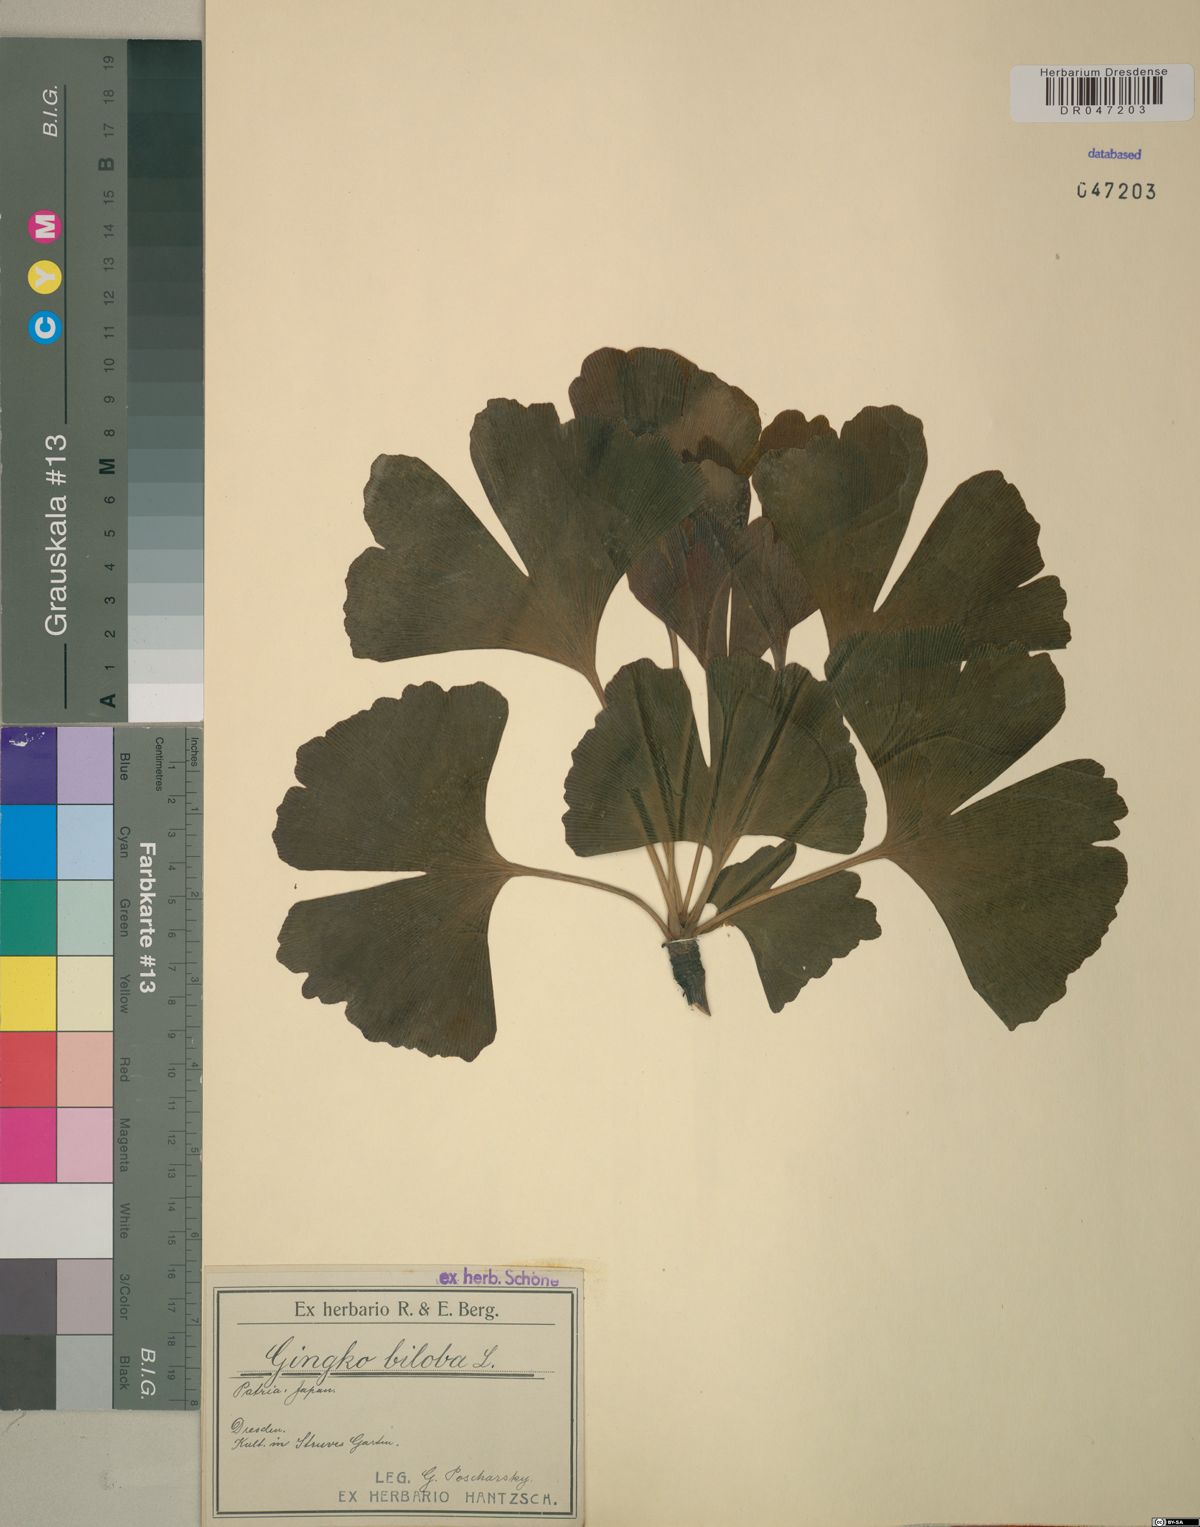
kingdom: Plantae
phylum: Tracheophyta
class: Ginkgoopsida
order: Ginkgoales
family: Ginkgoaceae
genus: Ginkgo
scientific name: Ginkgo biloba
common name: Ginkgo
